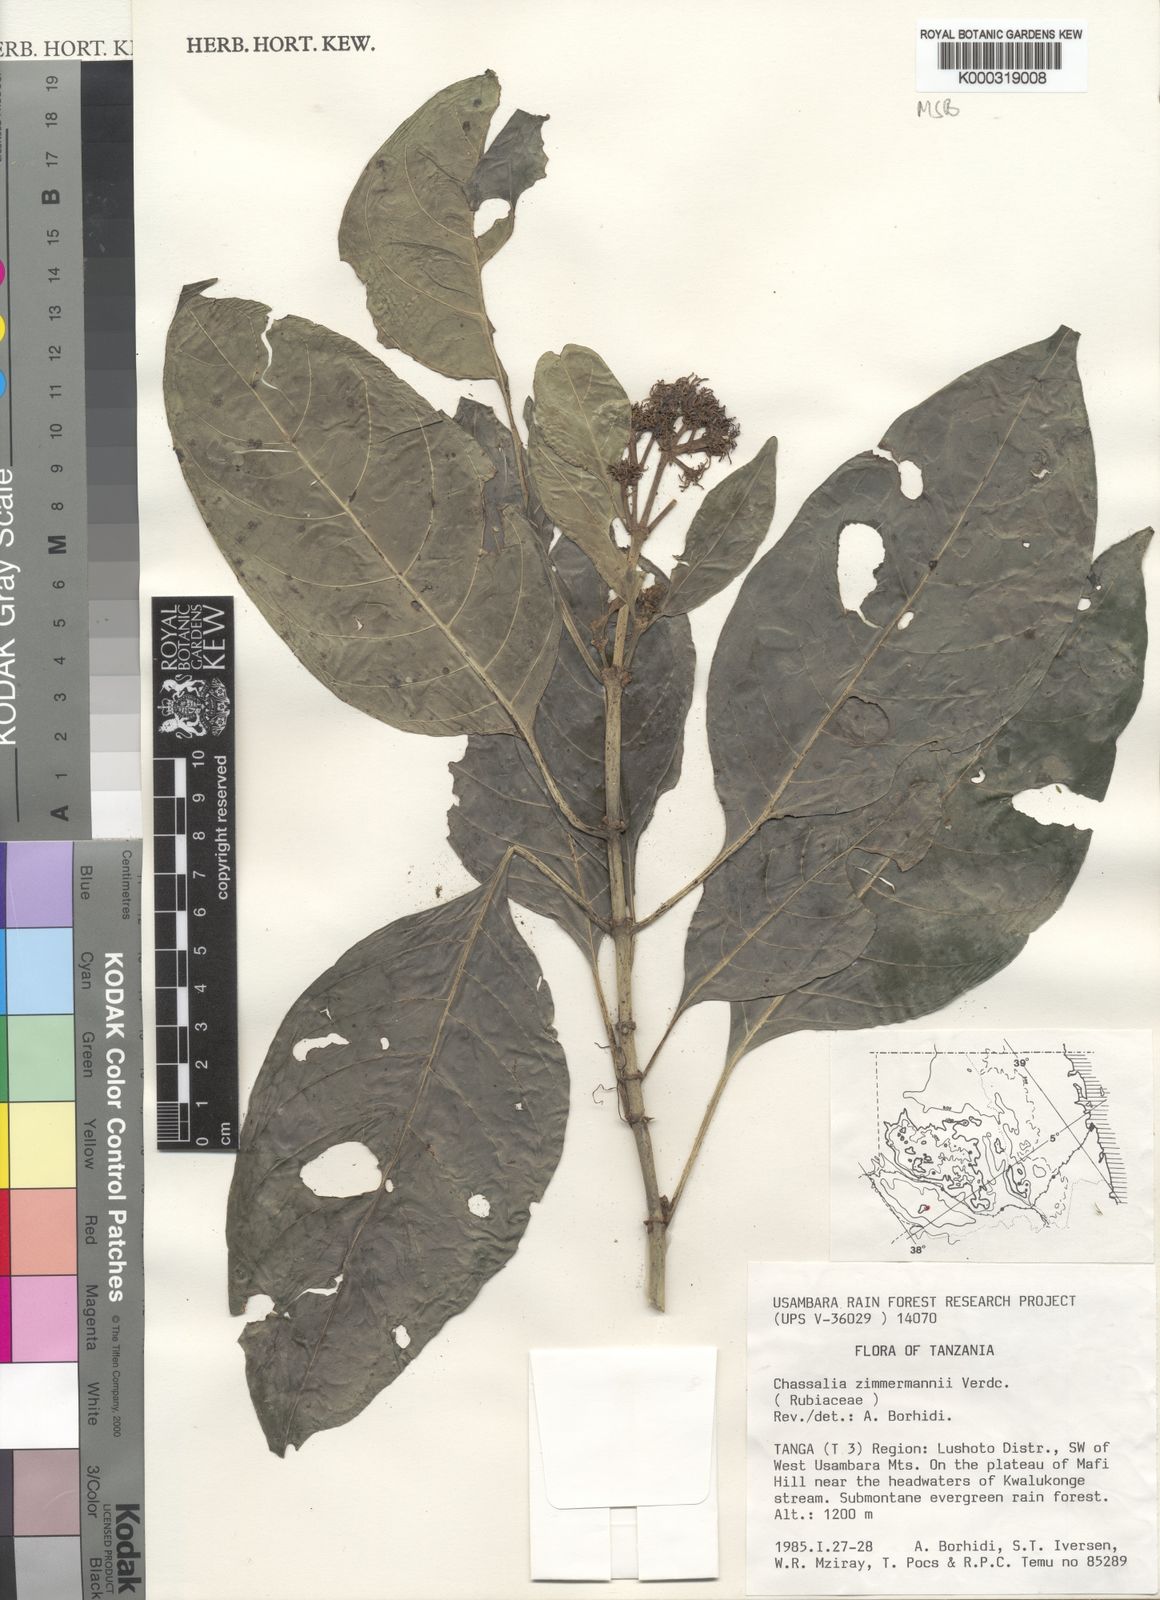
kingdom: Plantae
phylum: Tracheophyta
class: Magnoliopsida
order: Gentianales
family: Rubiaceae
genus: Chassalia
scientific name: Chassalia zimmermannii
